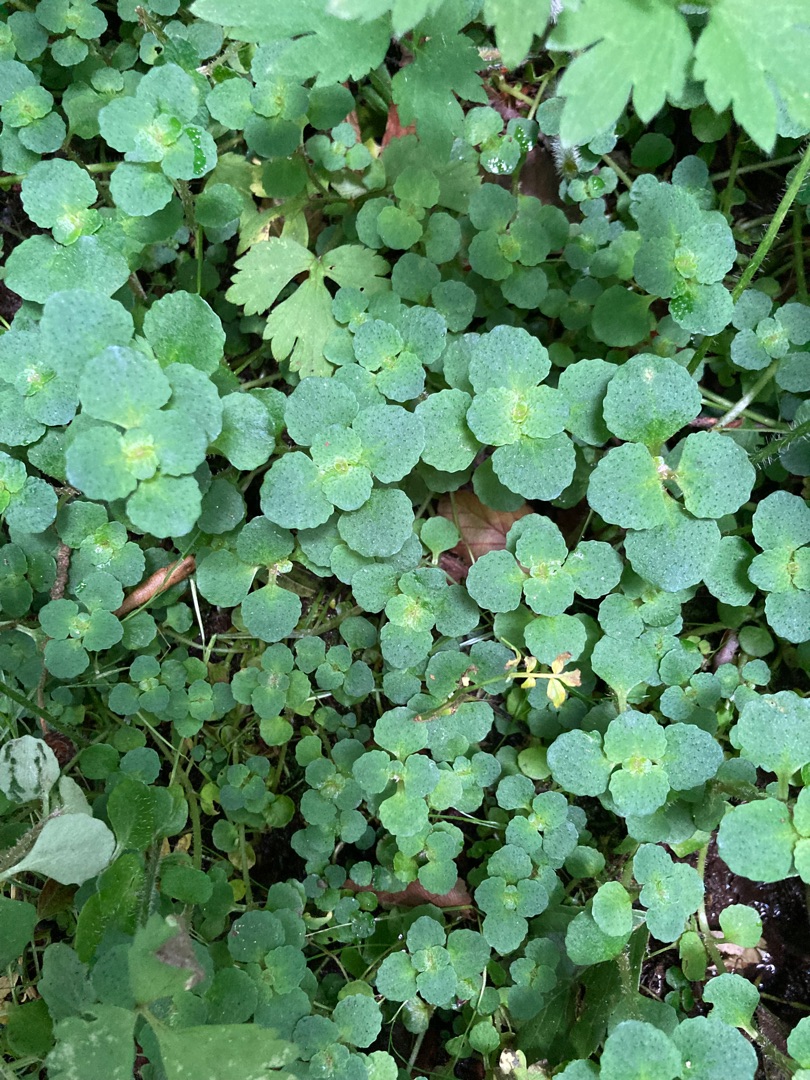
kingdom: Plantae
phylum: Tracheophyta
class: Magnoliopsida
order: Saxifragales
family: Saxifragaceae
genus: Chrysosplenium
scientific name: Chrysosplenium oppositifolium
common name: Småbladet milturt
